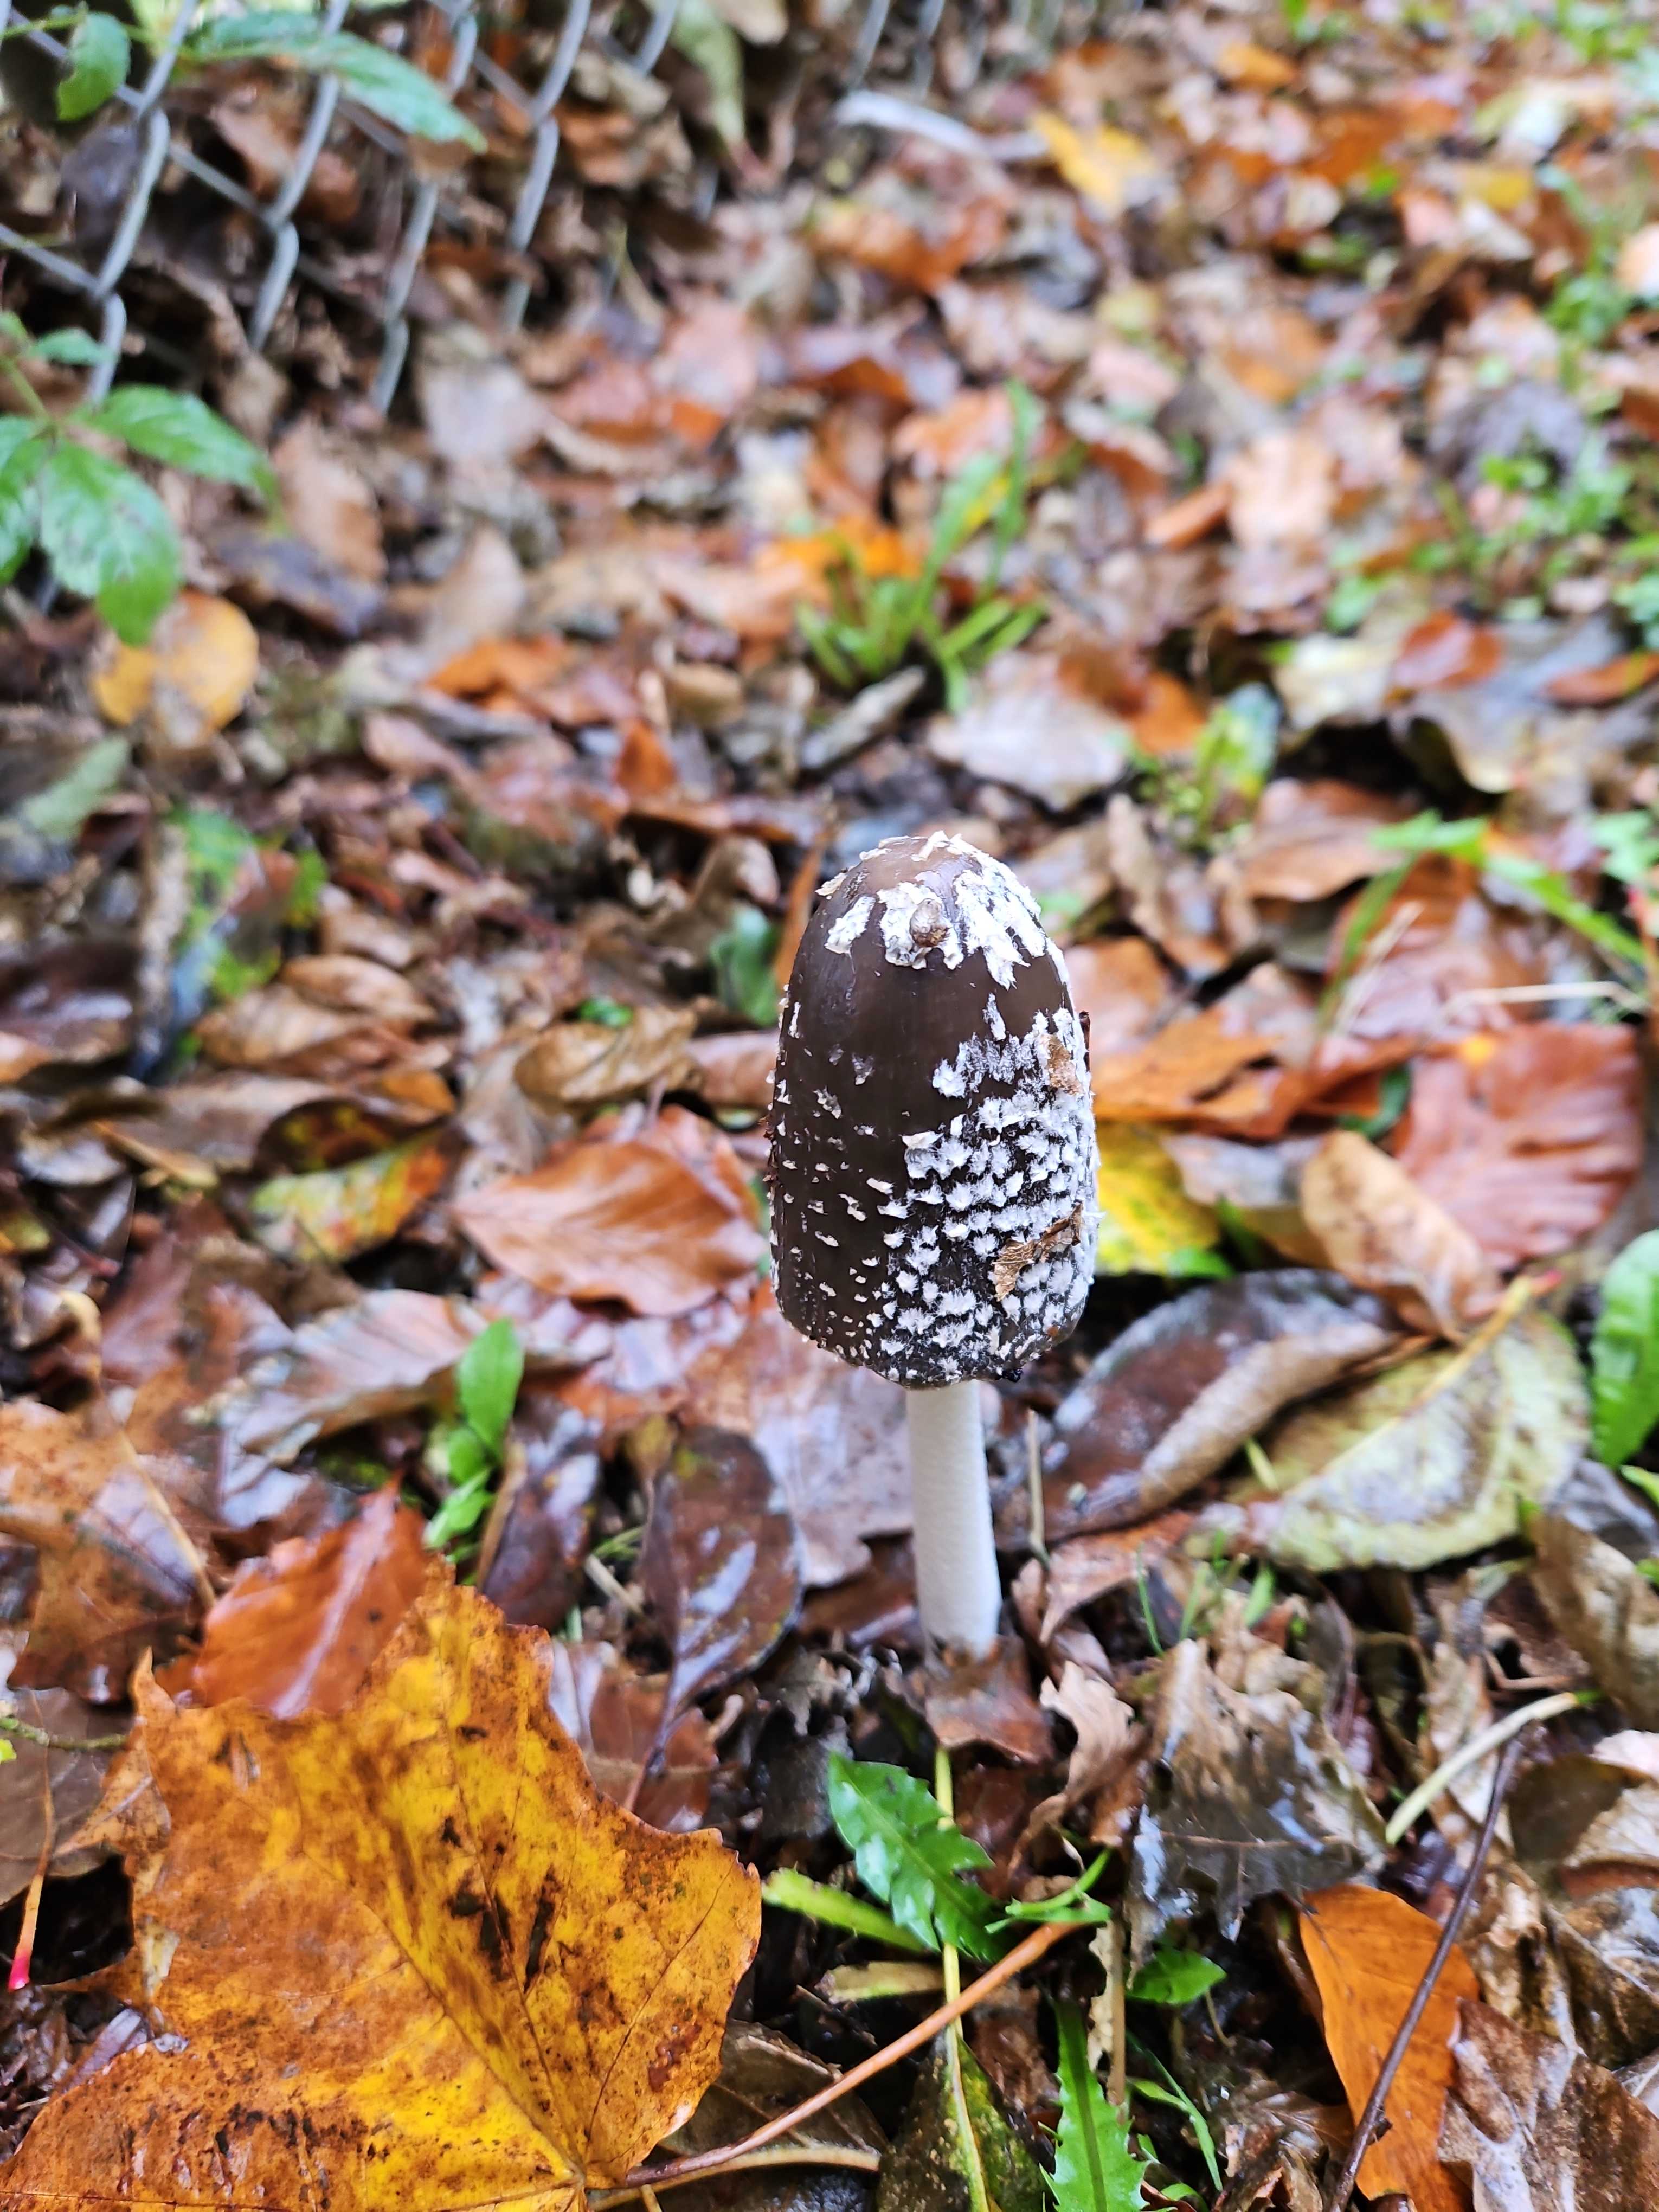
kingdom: Fungi
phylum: Basidiomycota
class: Agaricomycetes
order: Agaricales
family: Psathyrellaceae
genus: Coprinopsis
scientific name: Coprinopsis picacea
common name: skade-blækhat
